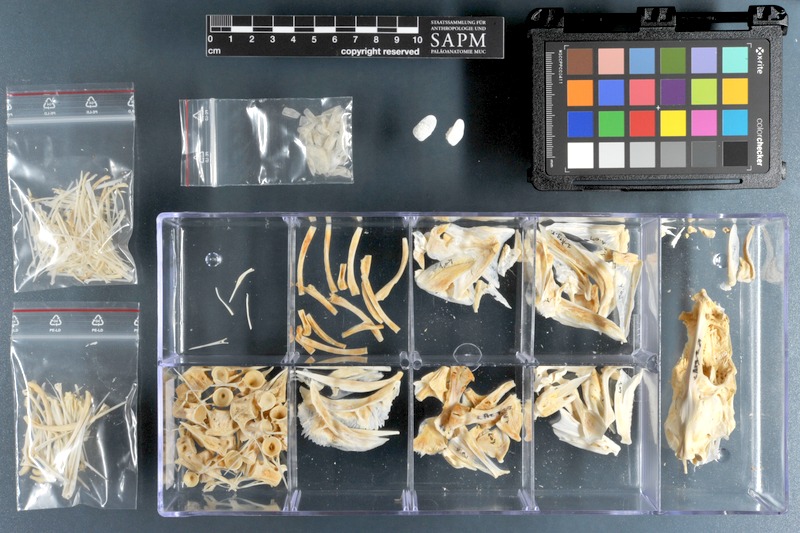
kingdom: Animalia
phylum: Chordata
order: Perciformes
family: Sciaenidae
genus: Argyrosomus
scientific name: Argyrosomus regius
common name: Meagre
